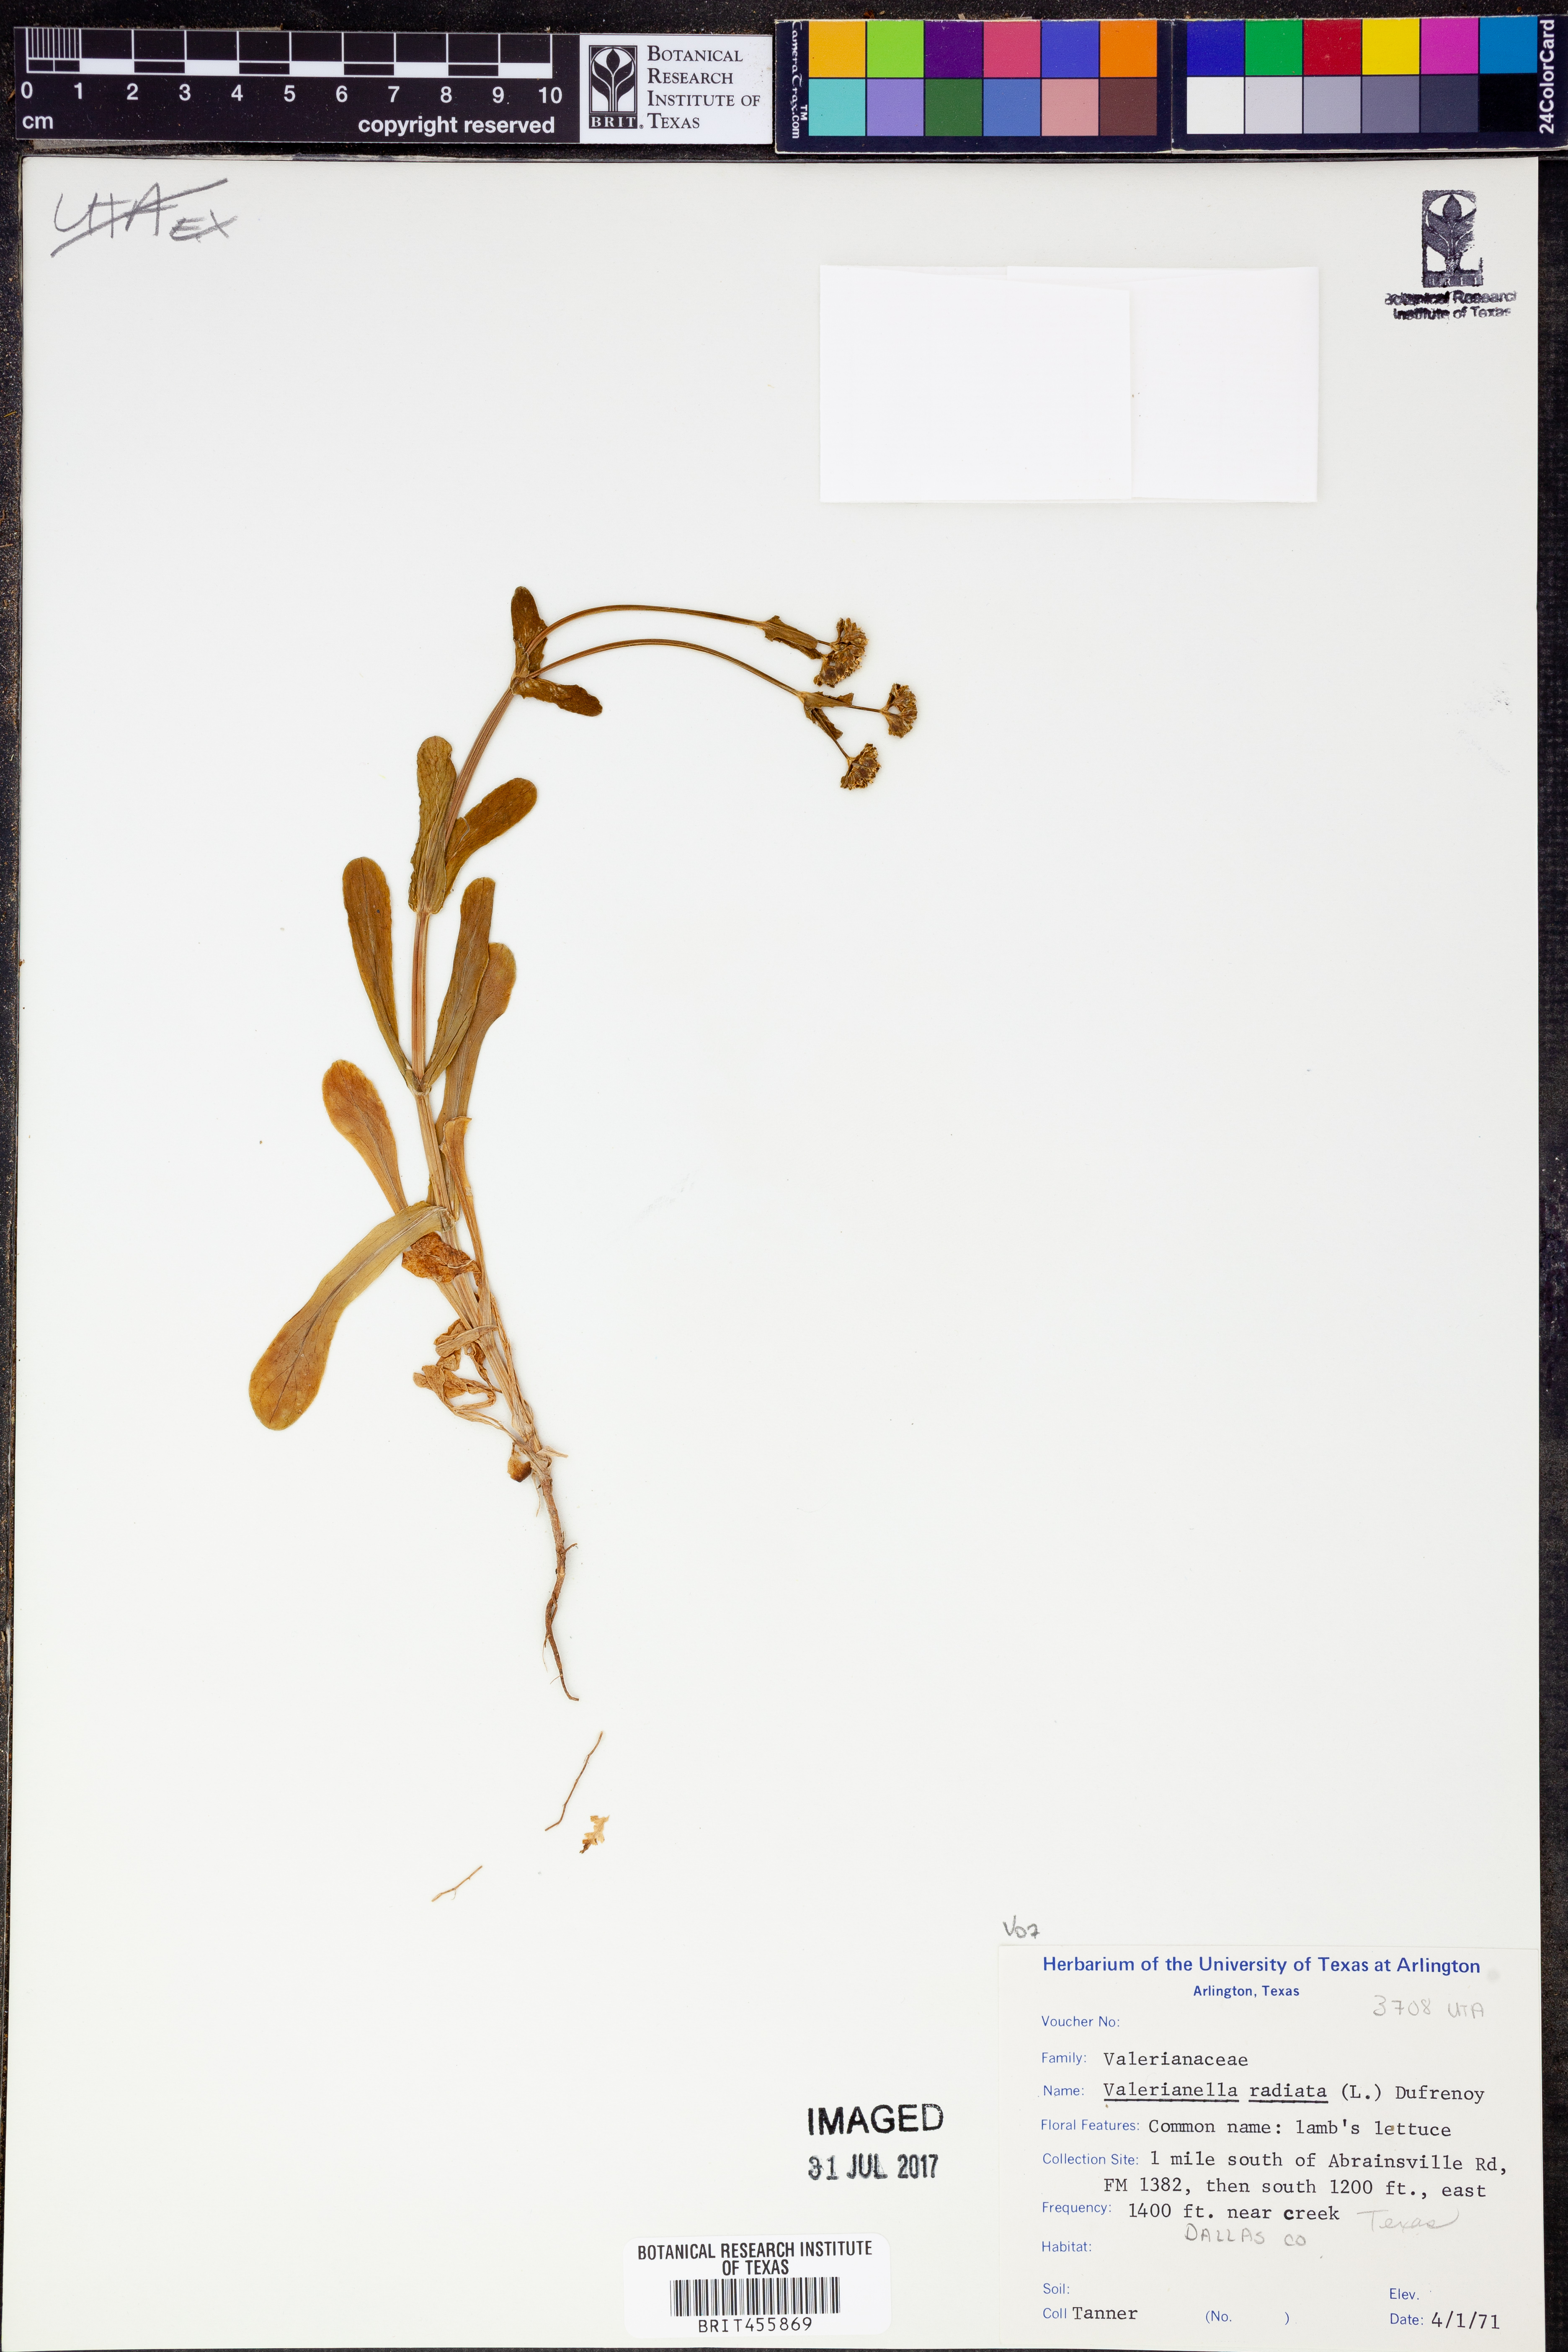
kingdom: Plantae
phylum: Tracheophyta
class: Magnoliopsida
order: Dipsacales
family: Caprifoliaceae
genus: Valerianella
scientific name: Valerianella radiata
